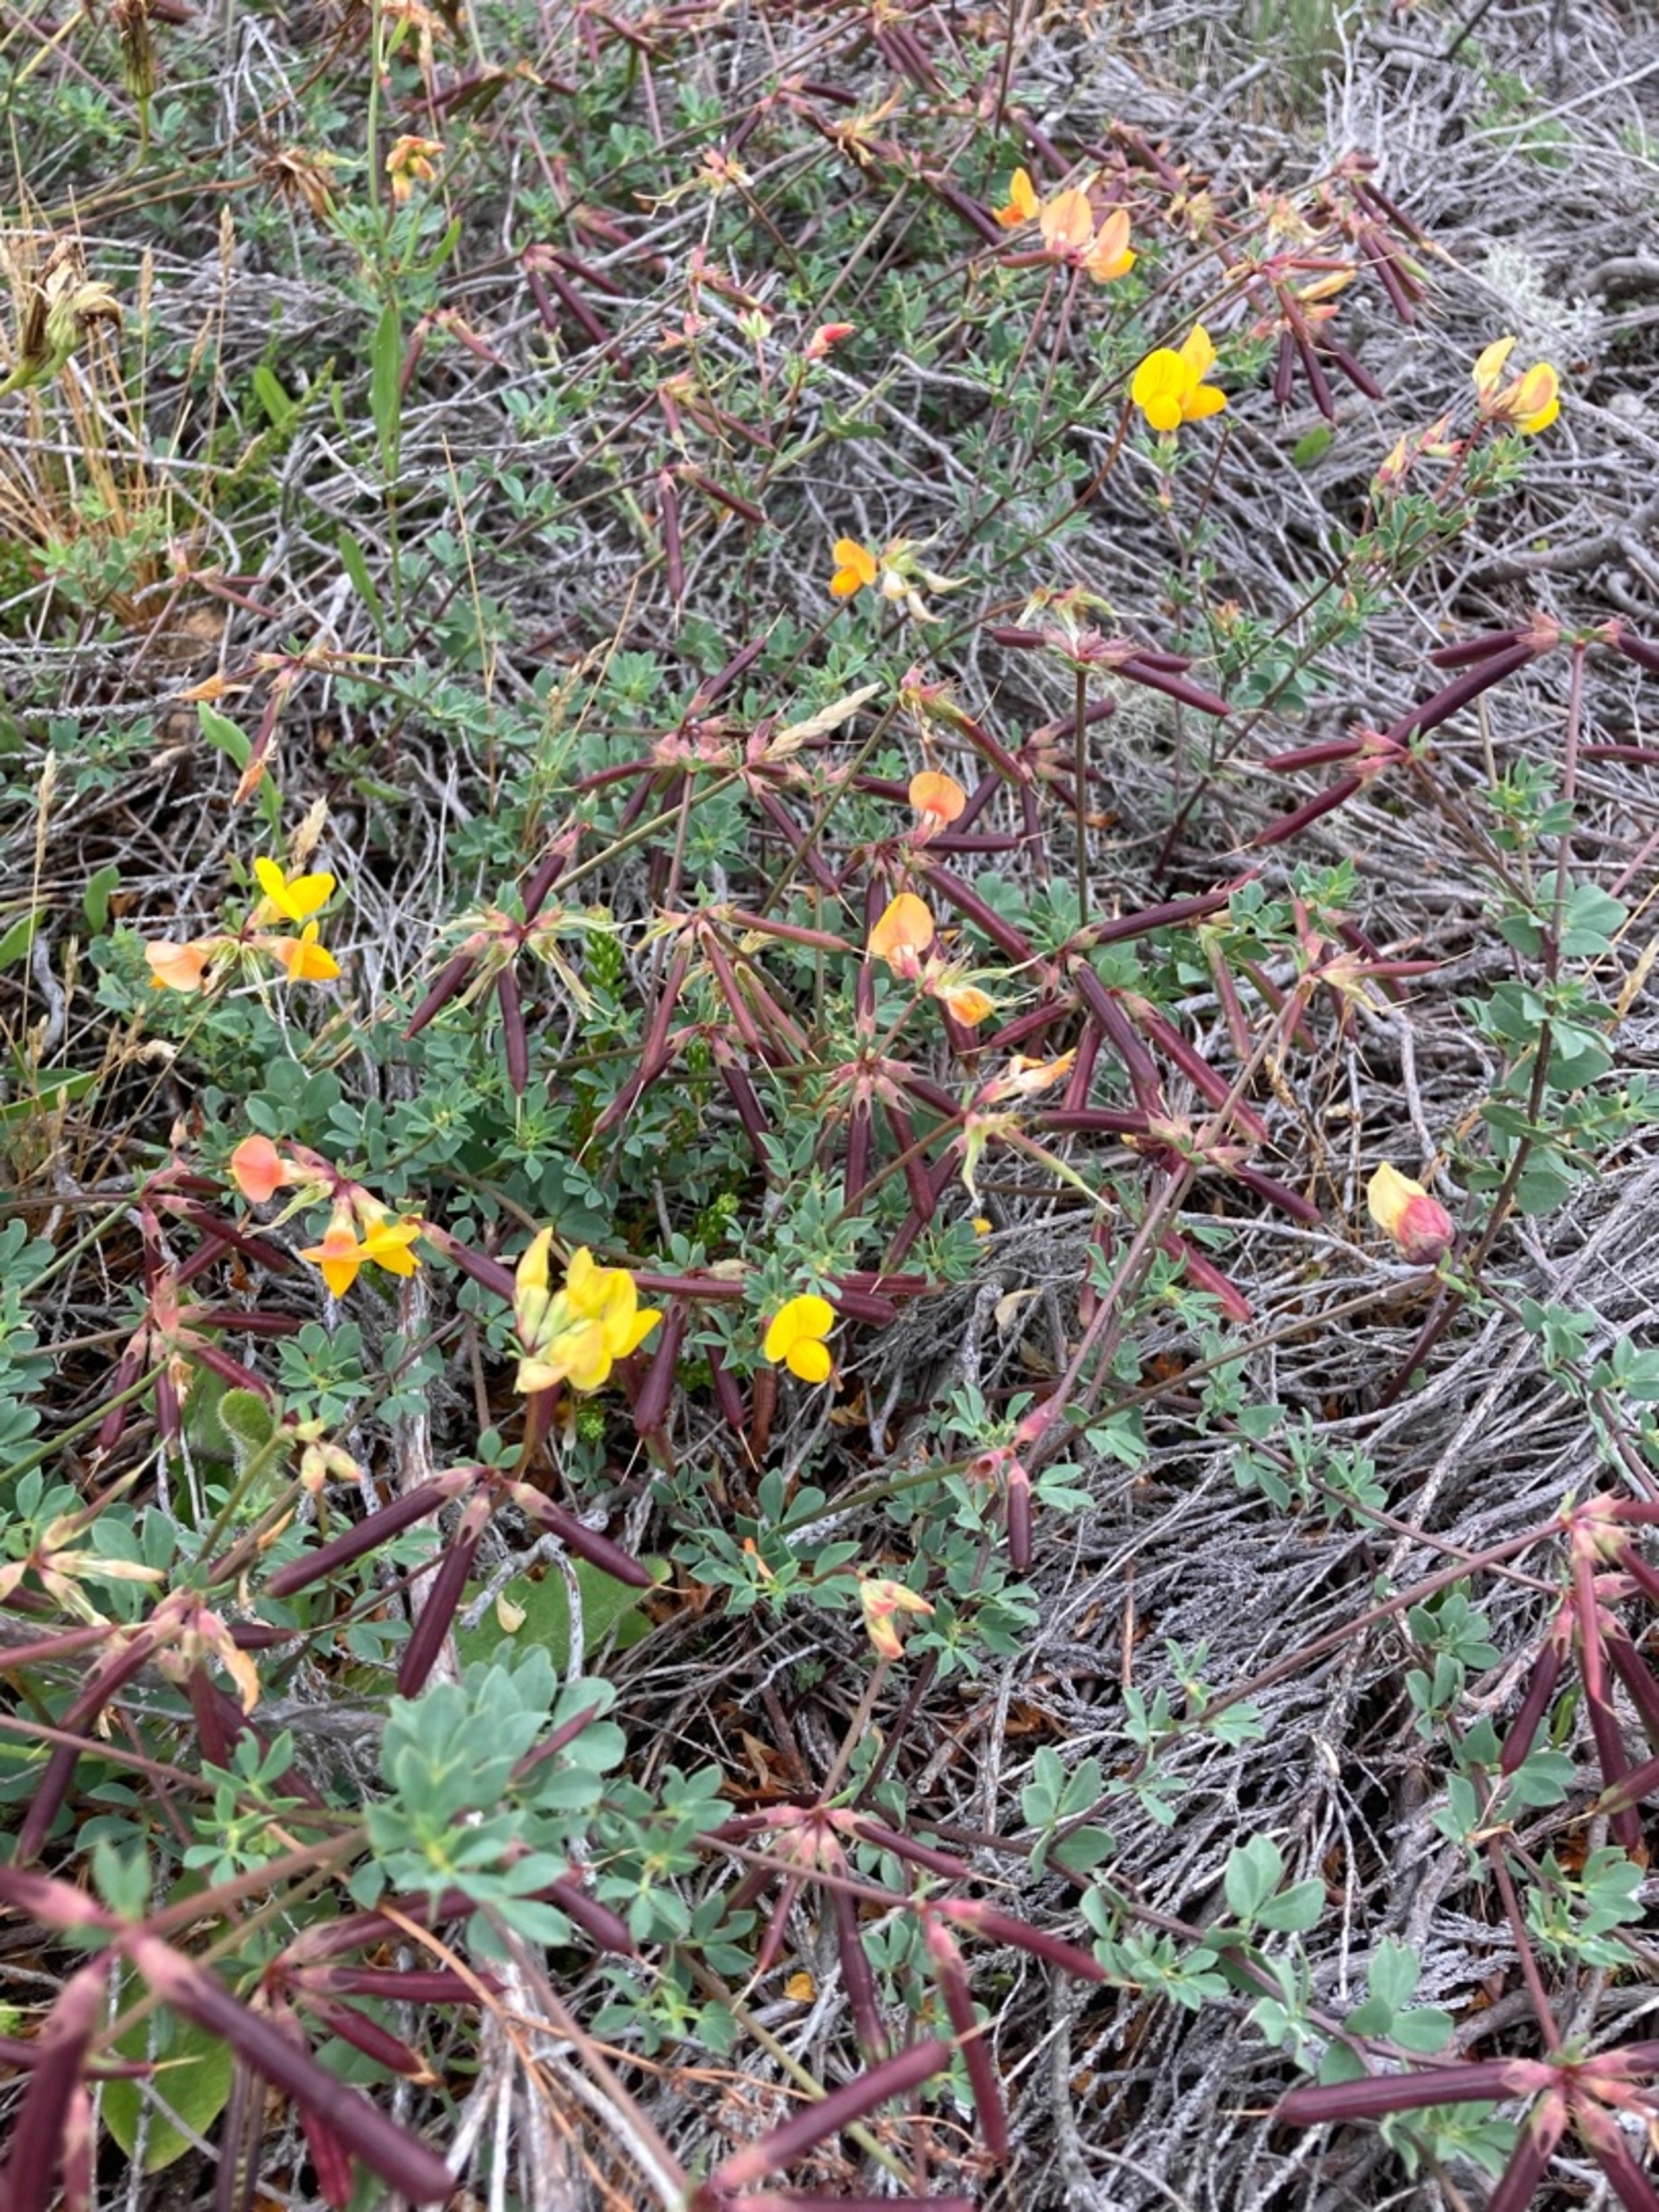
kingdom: Plantae
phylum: Tracheophyta
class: Magnoliopsida
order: Fabales
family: Fabaceae
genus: Lotus
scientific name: Lotus corniculatus
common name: Almindelig kællingetand
